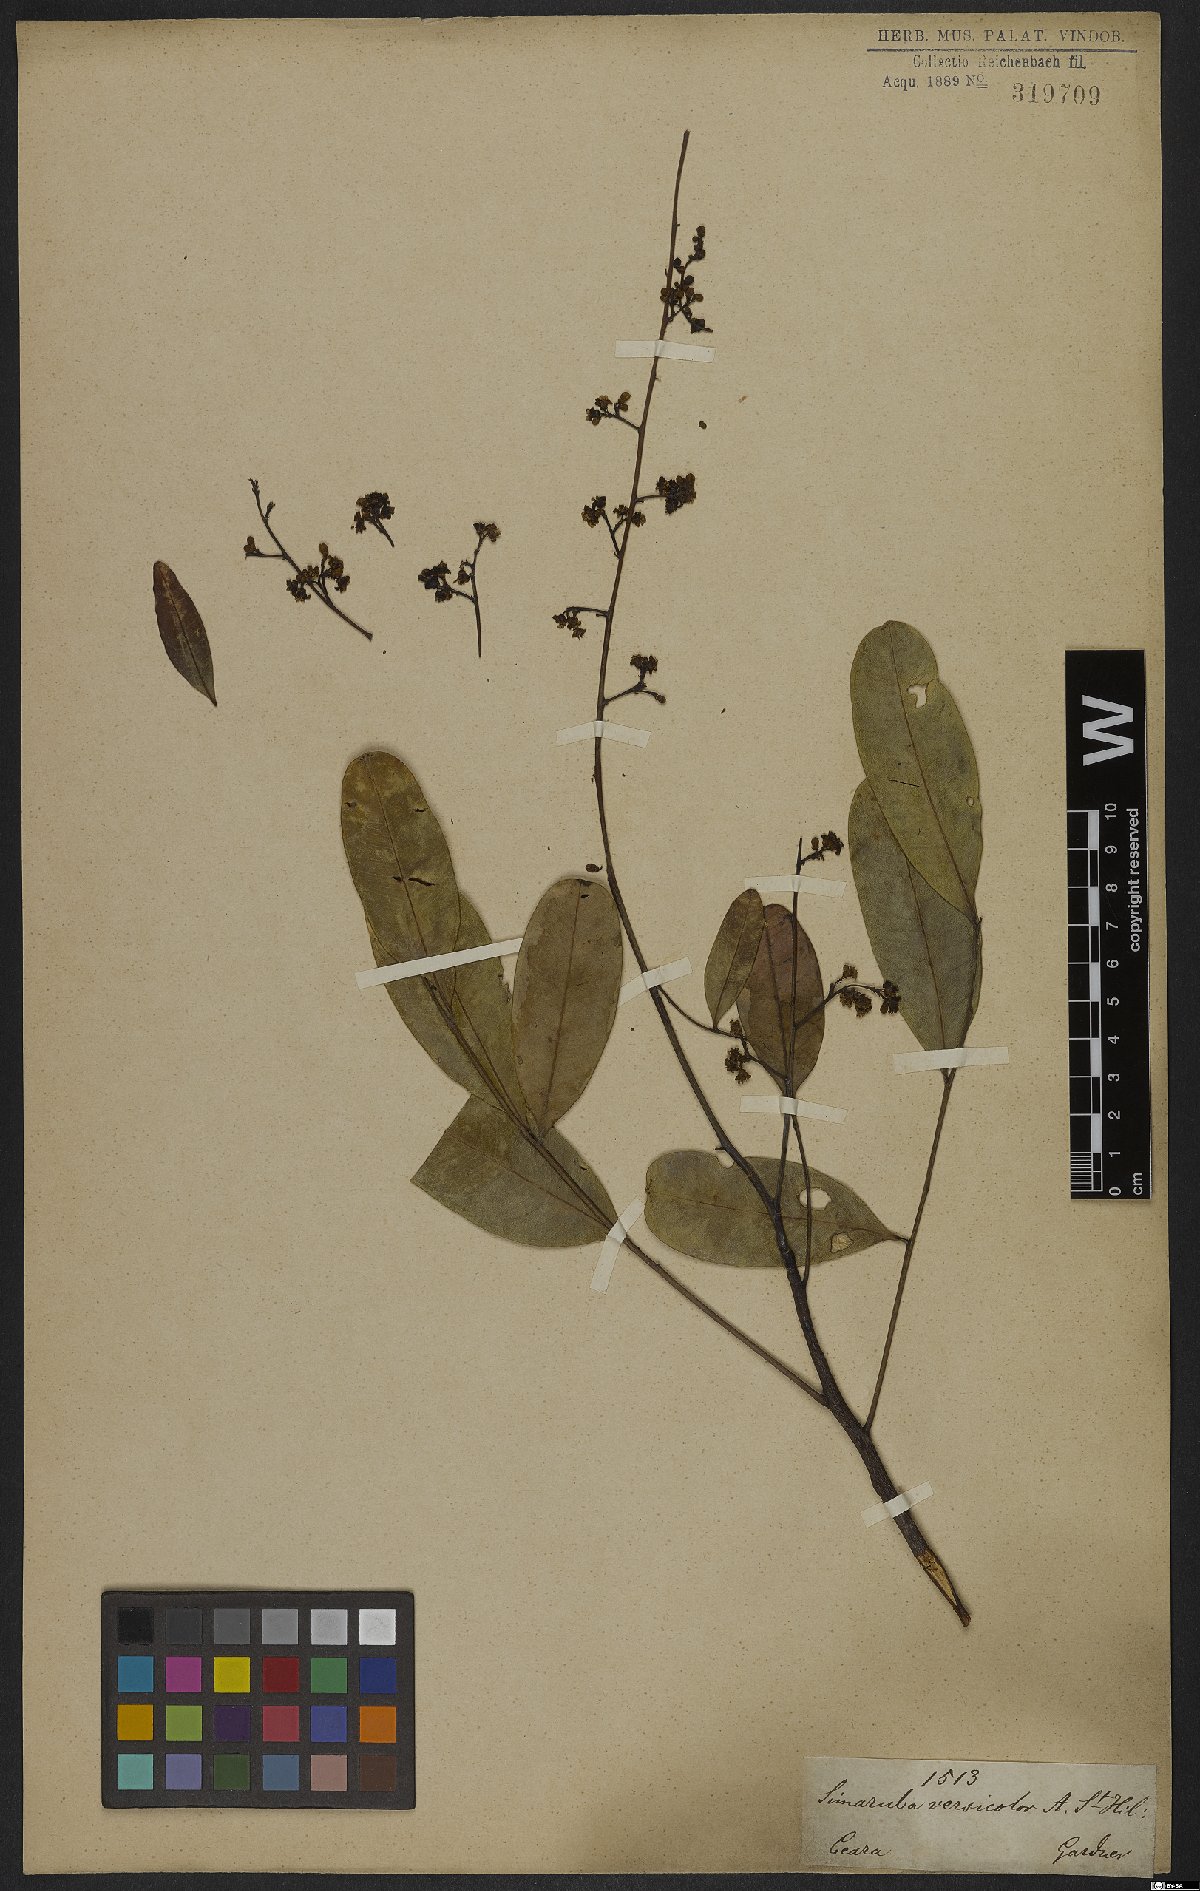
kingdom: Plantae
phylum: Tracheophyta
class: Magnoliopsida
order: Sapindales
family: Simaroubaceae
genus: Simarouba
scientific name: Simarouba versicolor
